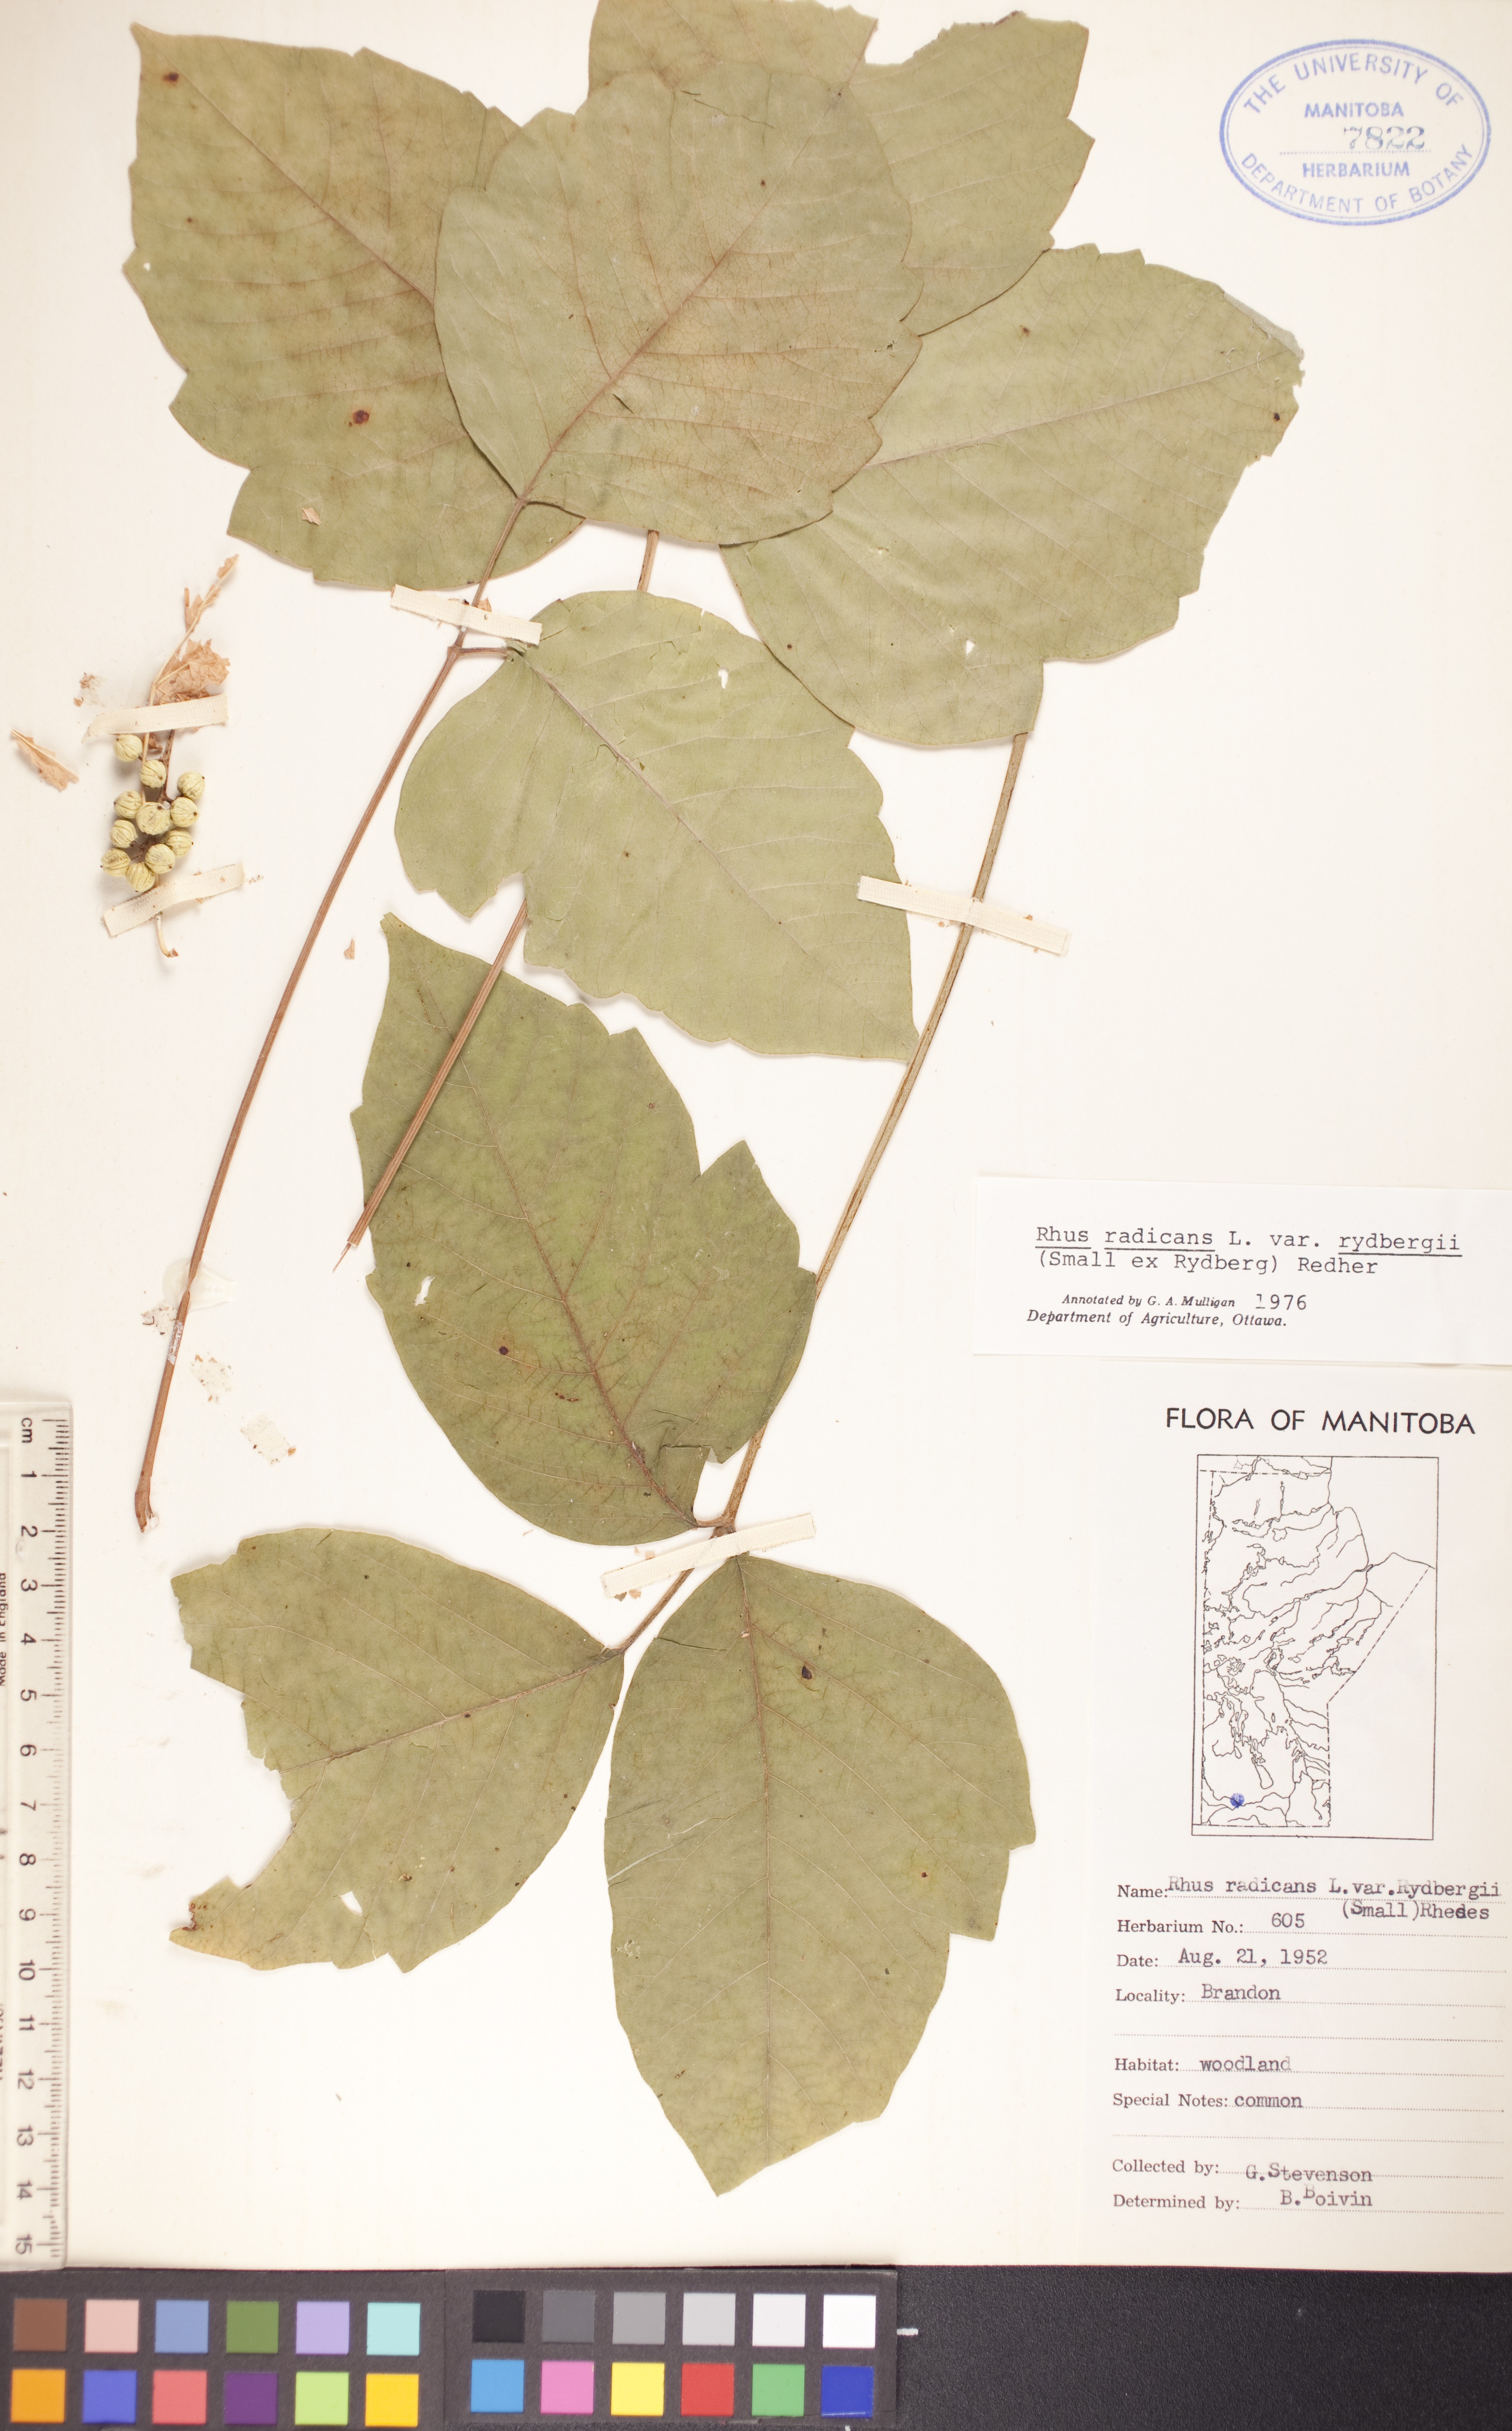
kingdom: Plantae
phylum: Tracheophyta
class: Magnoliopsida
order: Sapindales
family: Anacardiaceae
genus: Toxicodendron
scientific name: Toxicodendron rydbergii
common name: Rydberg's poison-ivy
